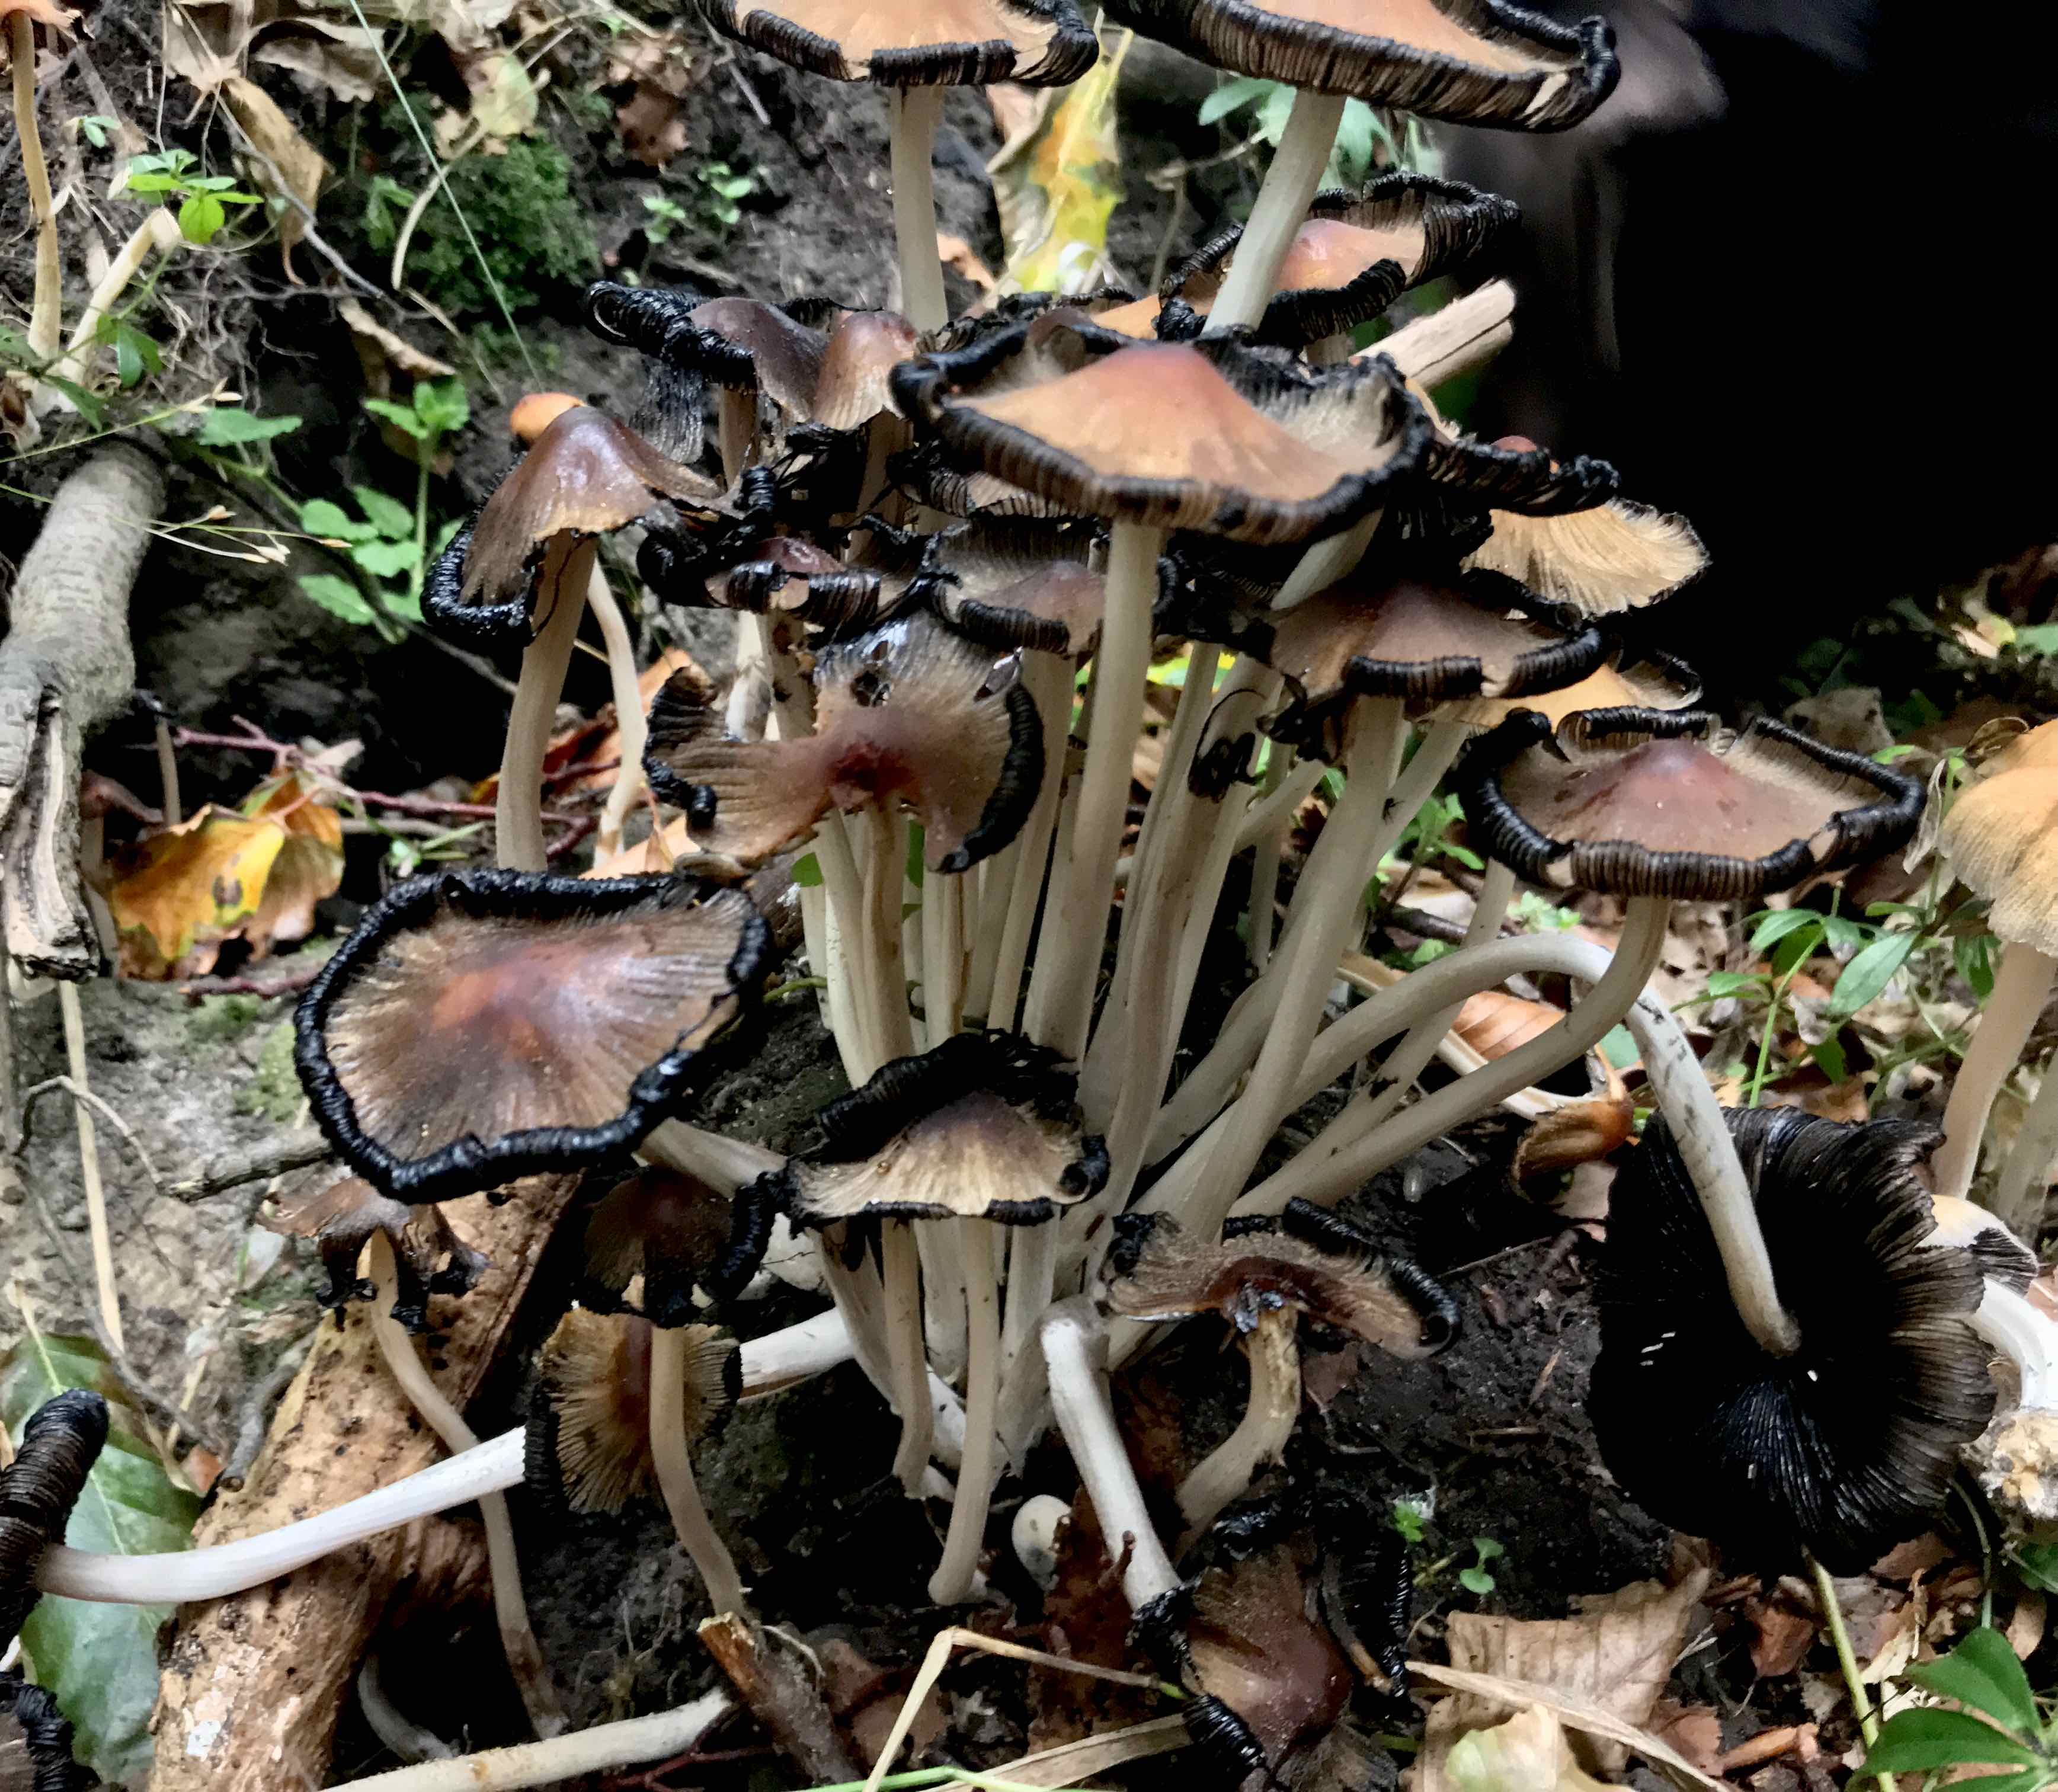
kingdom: Fungi
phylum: Basidiomycota
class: Agaricomycetes
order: Agaricales
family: Psathyrellaceae
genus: Coprinellus
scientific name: Coprinellus micaceus
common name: glimmer-blækhat
